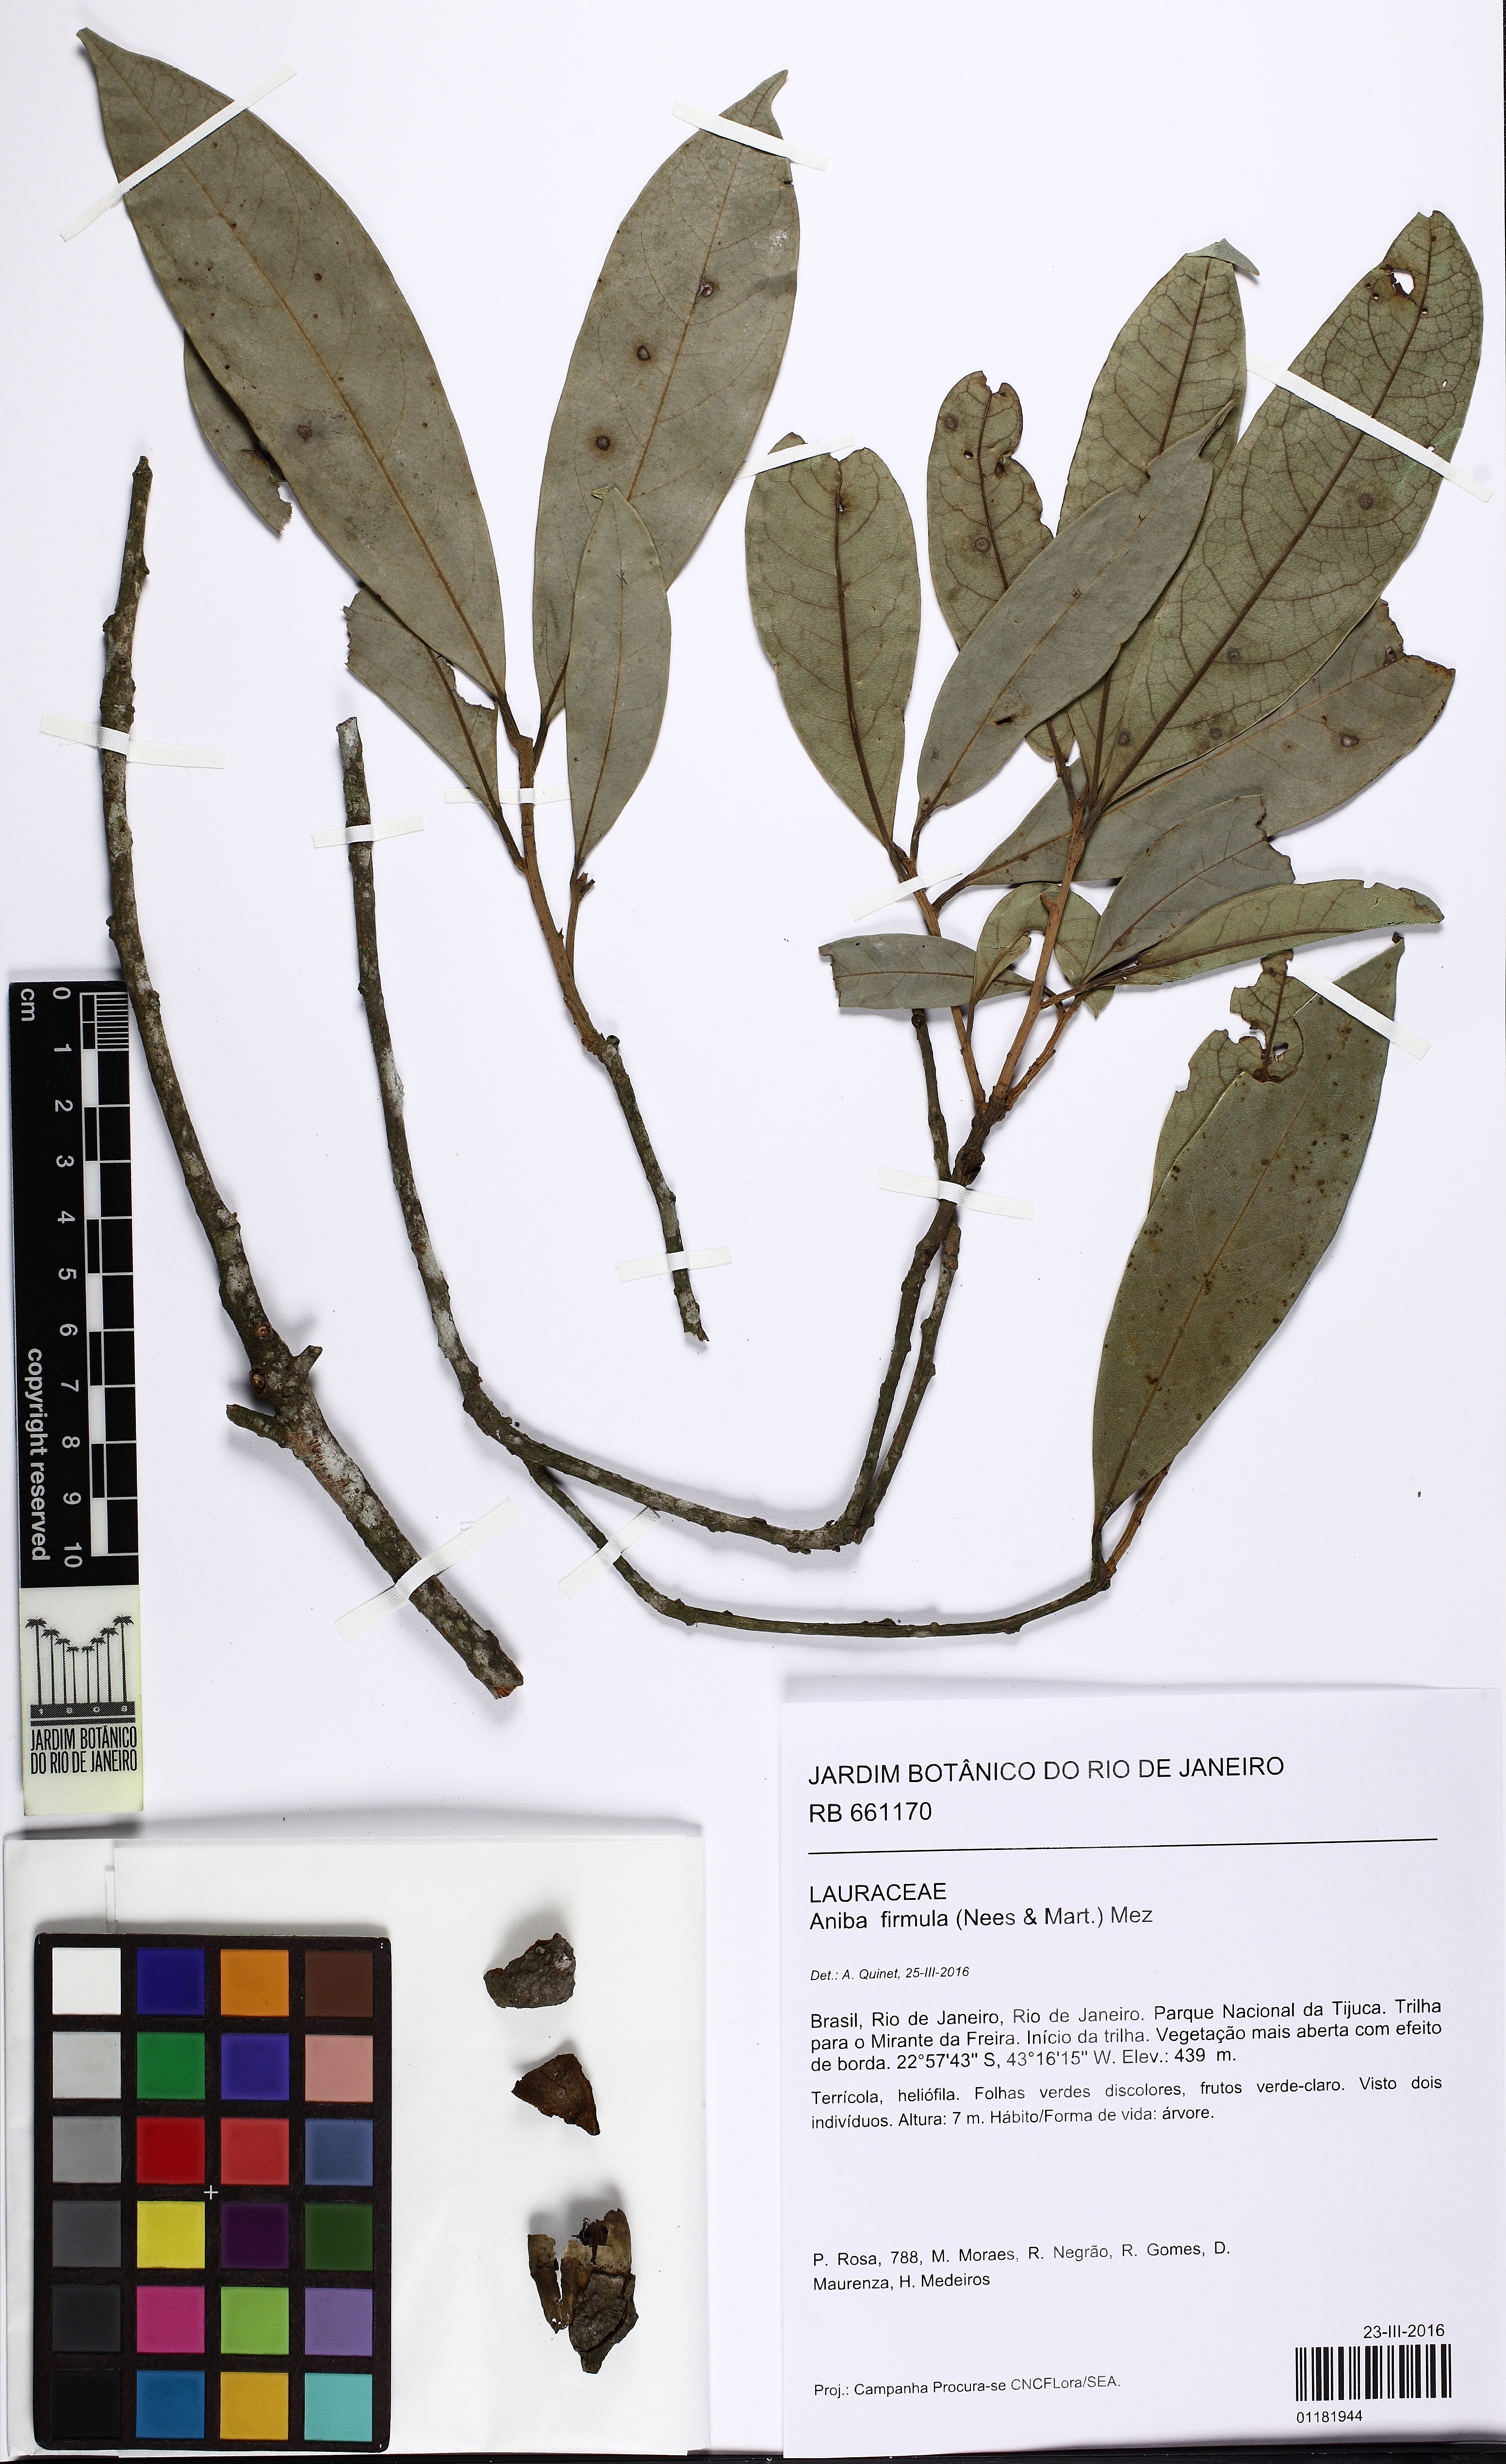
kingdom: Plantae
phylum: Tracheophyta
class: Magnoliopsida
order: Laurales
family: Lauraceae
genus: Aniba
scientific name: Aniba firmula
